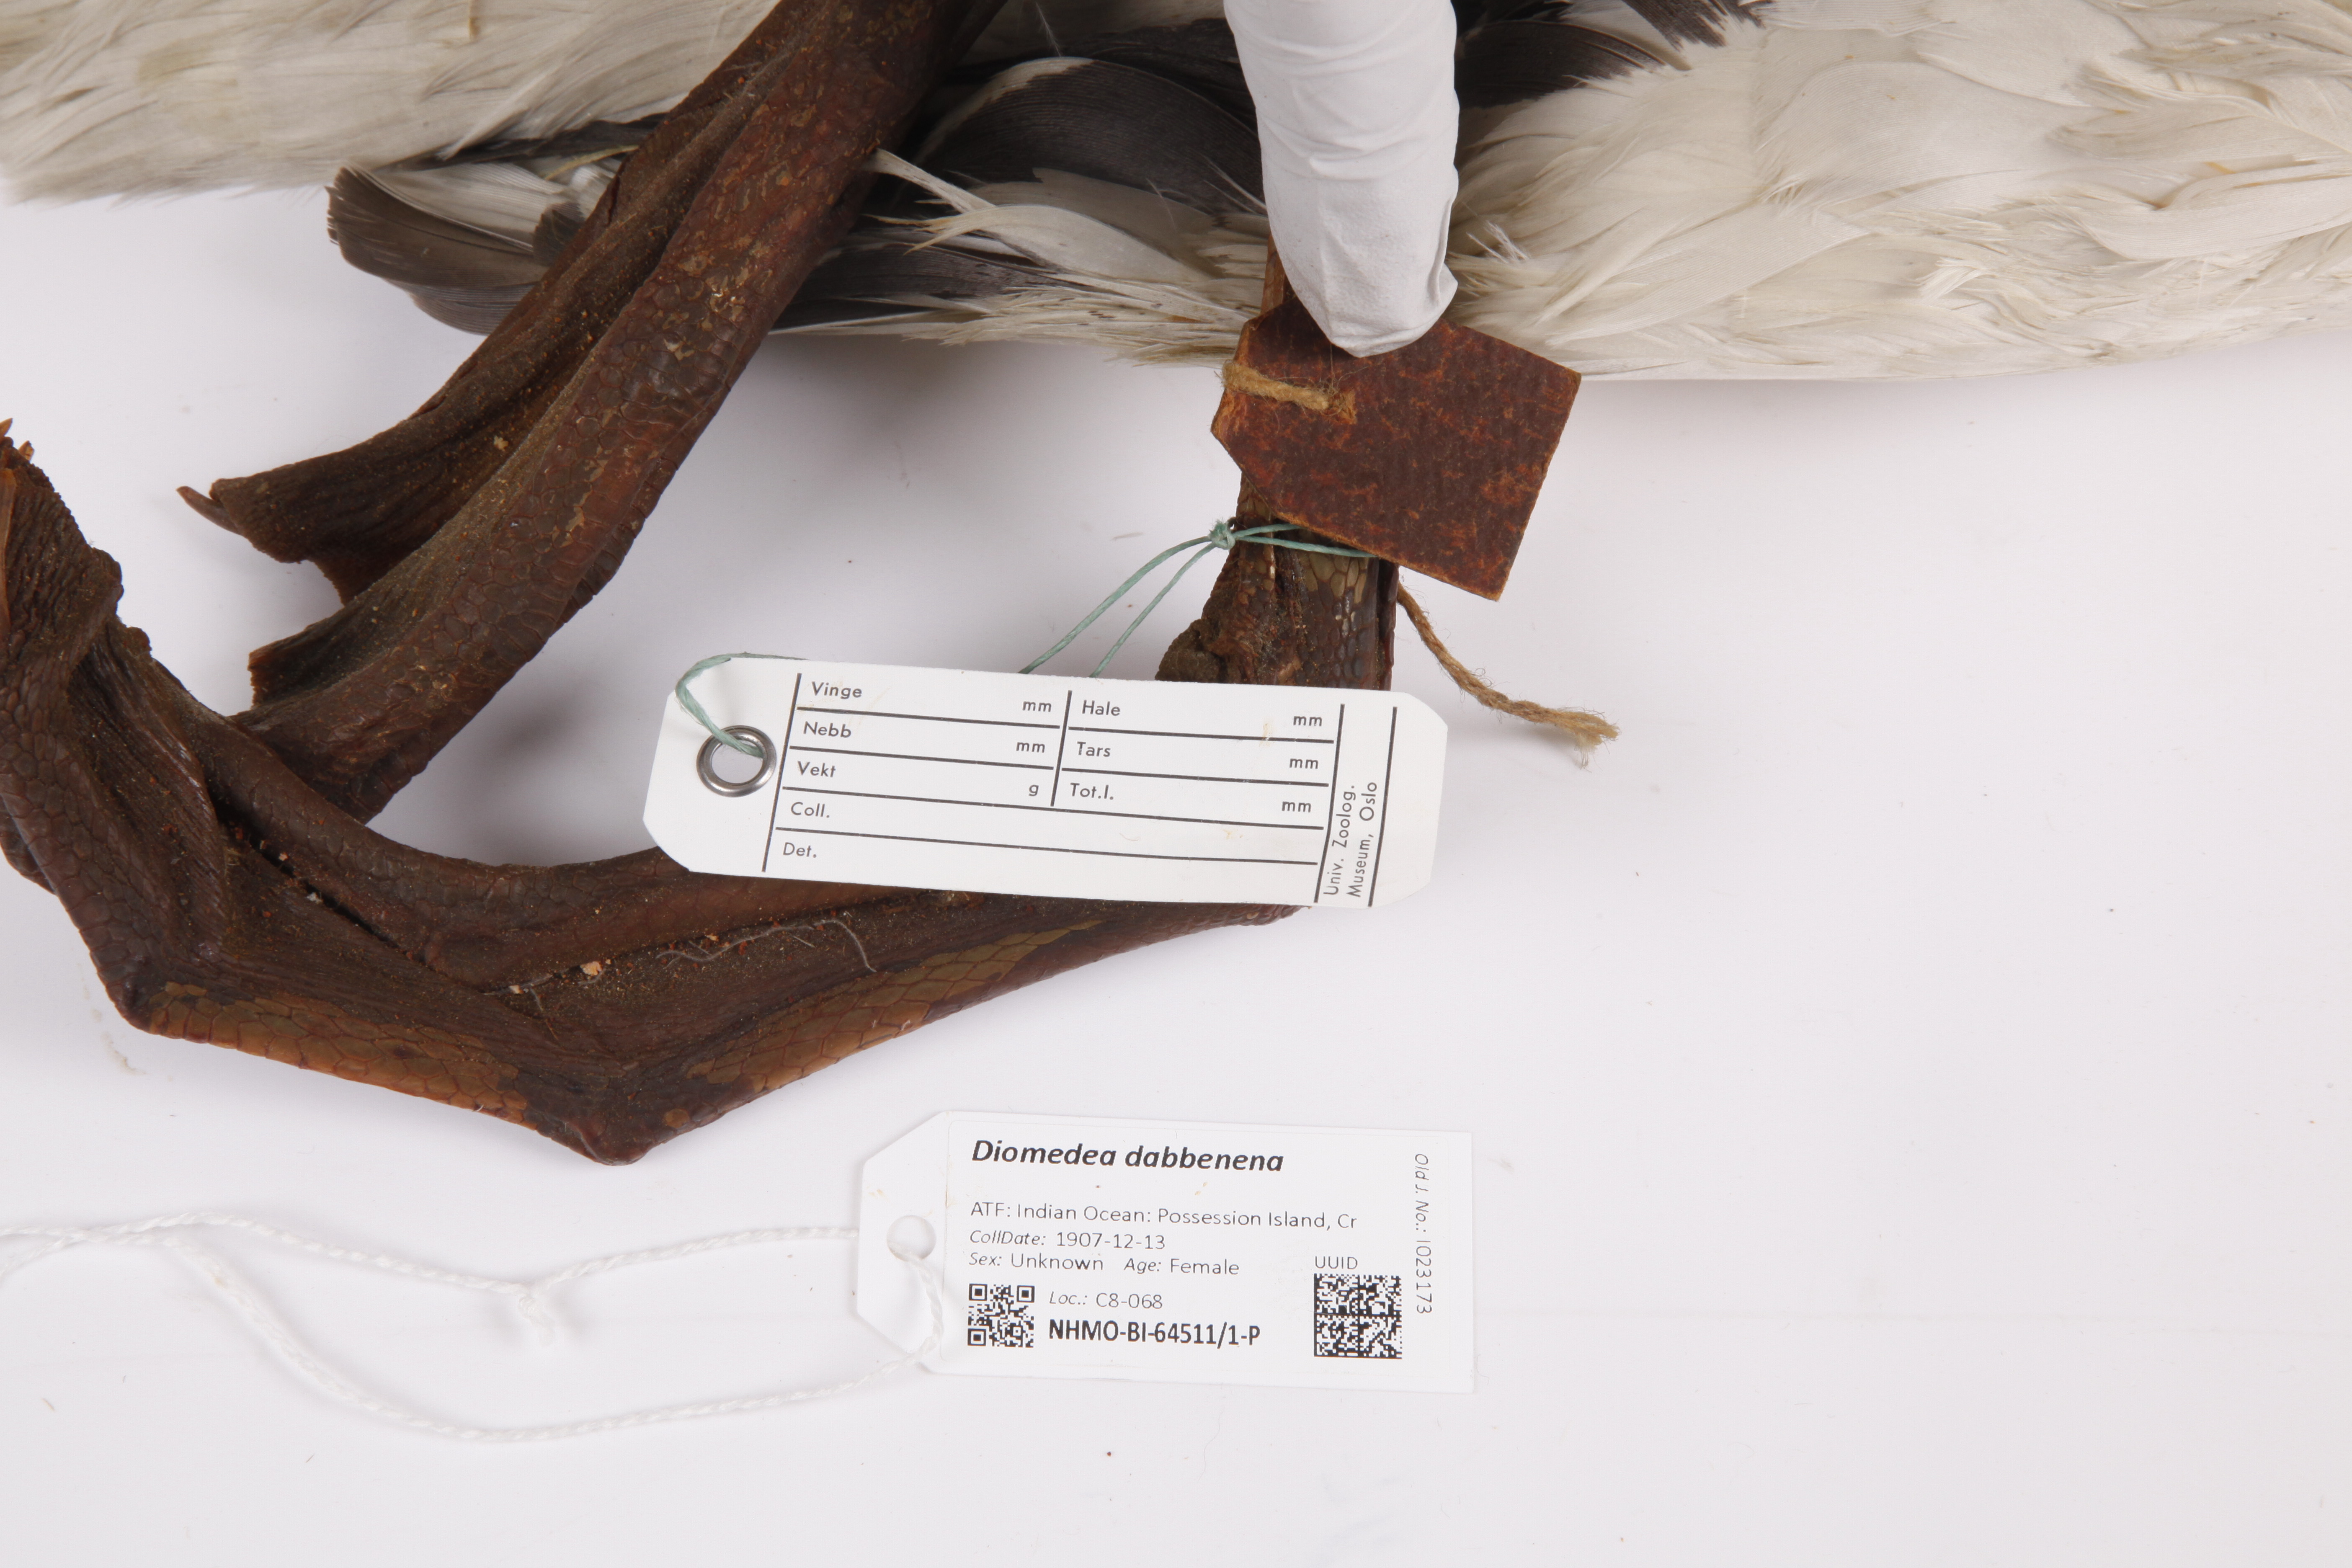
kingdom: Animalia
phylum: Chordata
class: Aves
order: Procellariiformes
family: Diomedeidae
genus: Diomedea
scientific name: Diomedea dabbenena
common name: Tristan albatross
